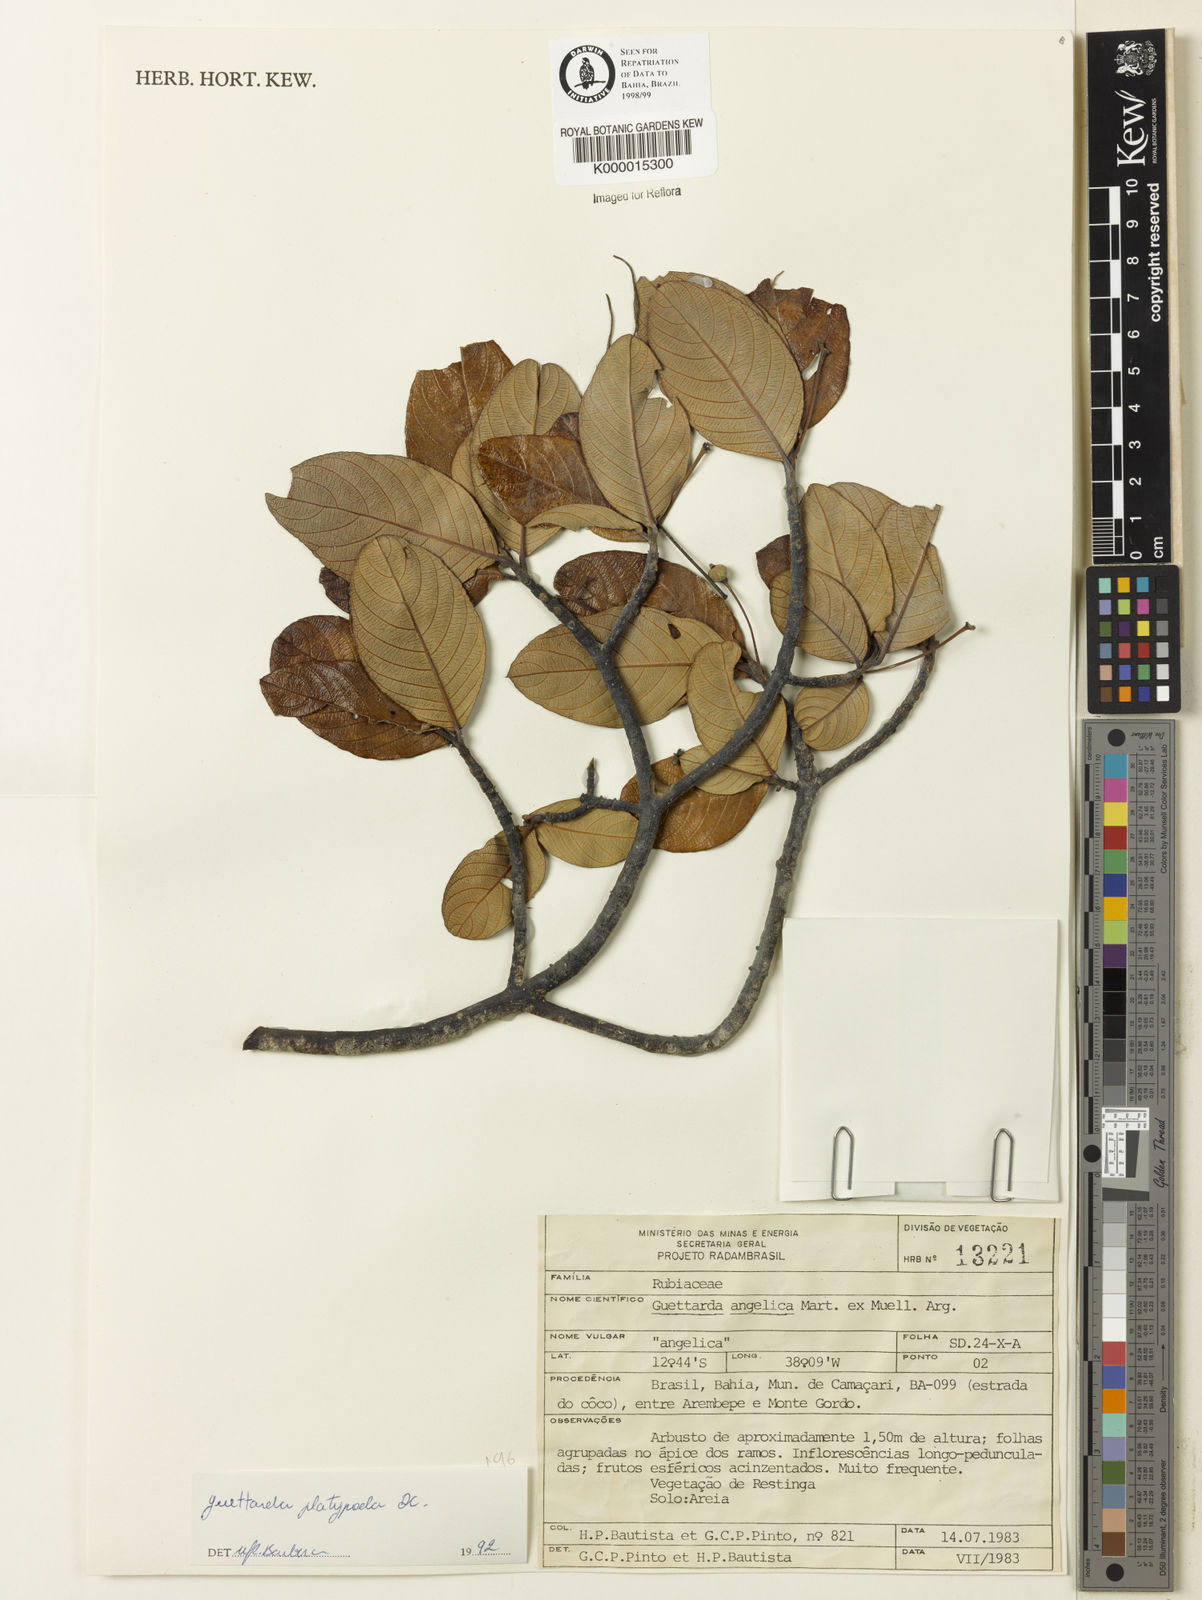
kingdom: Plantae
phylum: Tracheophyta
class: Magnoliopsida
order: Gentianales
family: Rubiaceae
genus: Guettarda
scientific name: Guettarda platypoda
